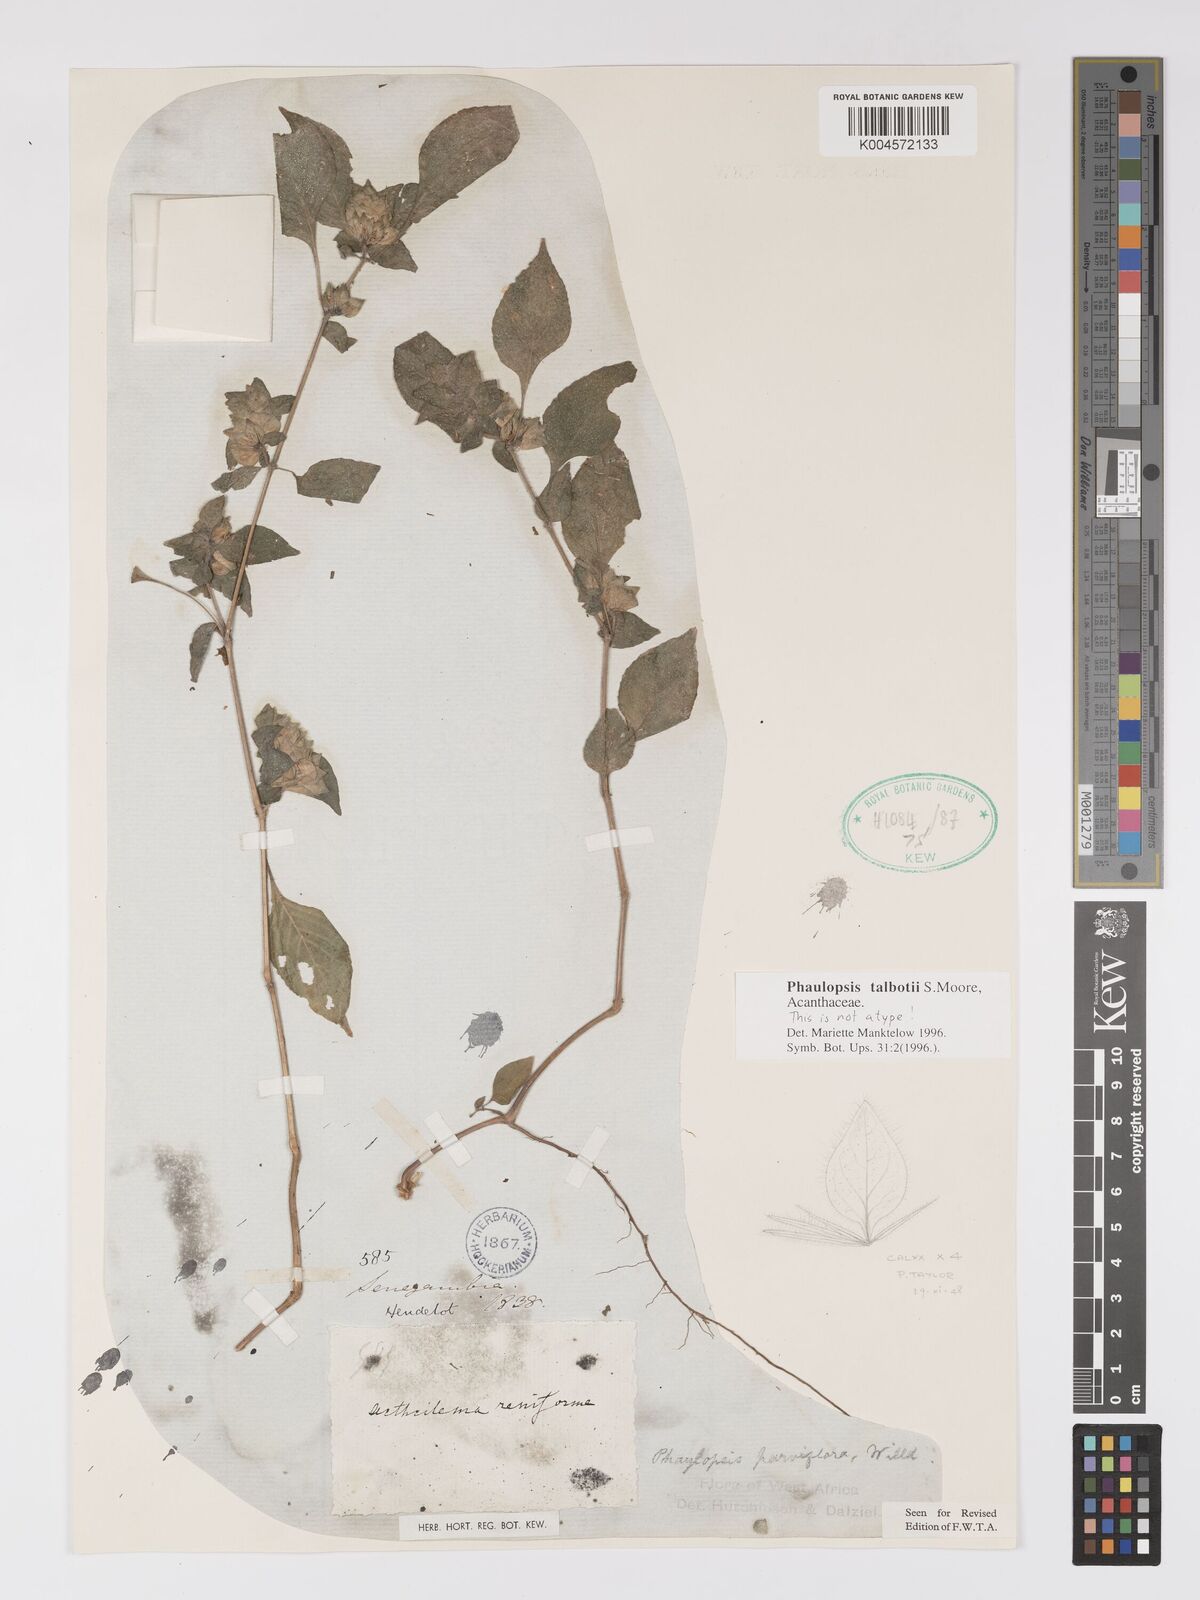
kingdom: Plantae
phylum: Tracheophyta
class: Magnoliopsida
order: Lamiales
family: Acanthaceae
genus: Phaulopsis
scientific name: Phaulopsis talbotii
